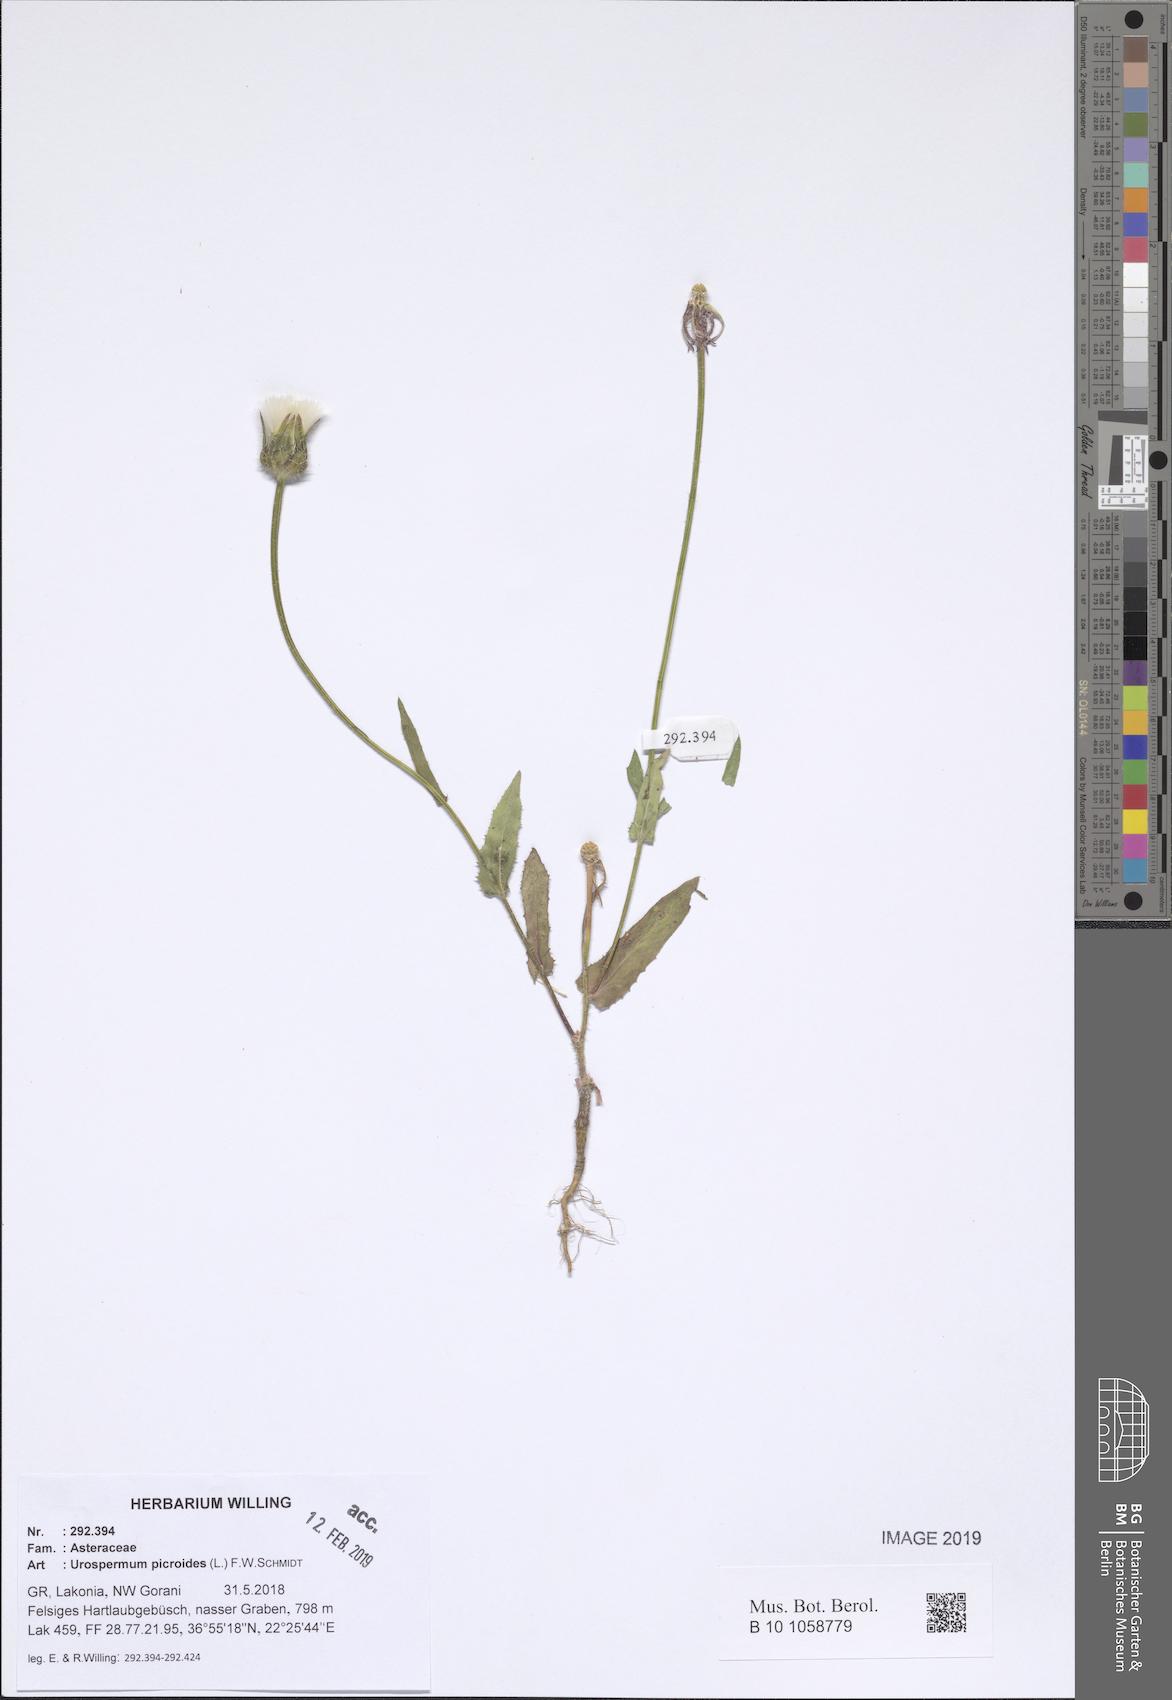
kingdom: Plantae
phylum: Tracheophyta
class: Magnoliopsida
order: Asterales
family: Asteraceae
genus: Urospermum
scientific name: Urospermum picroides
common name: False hawkbit
